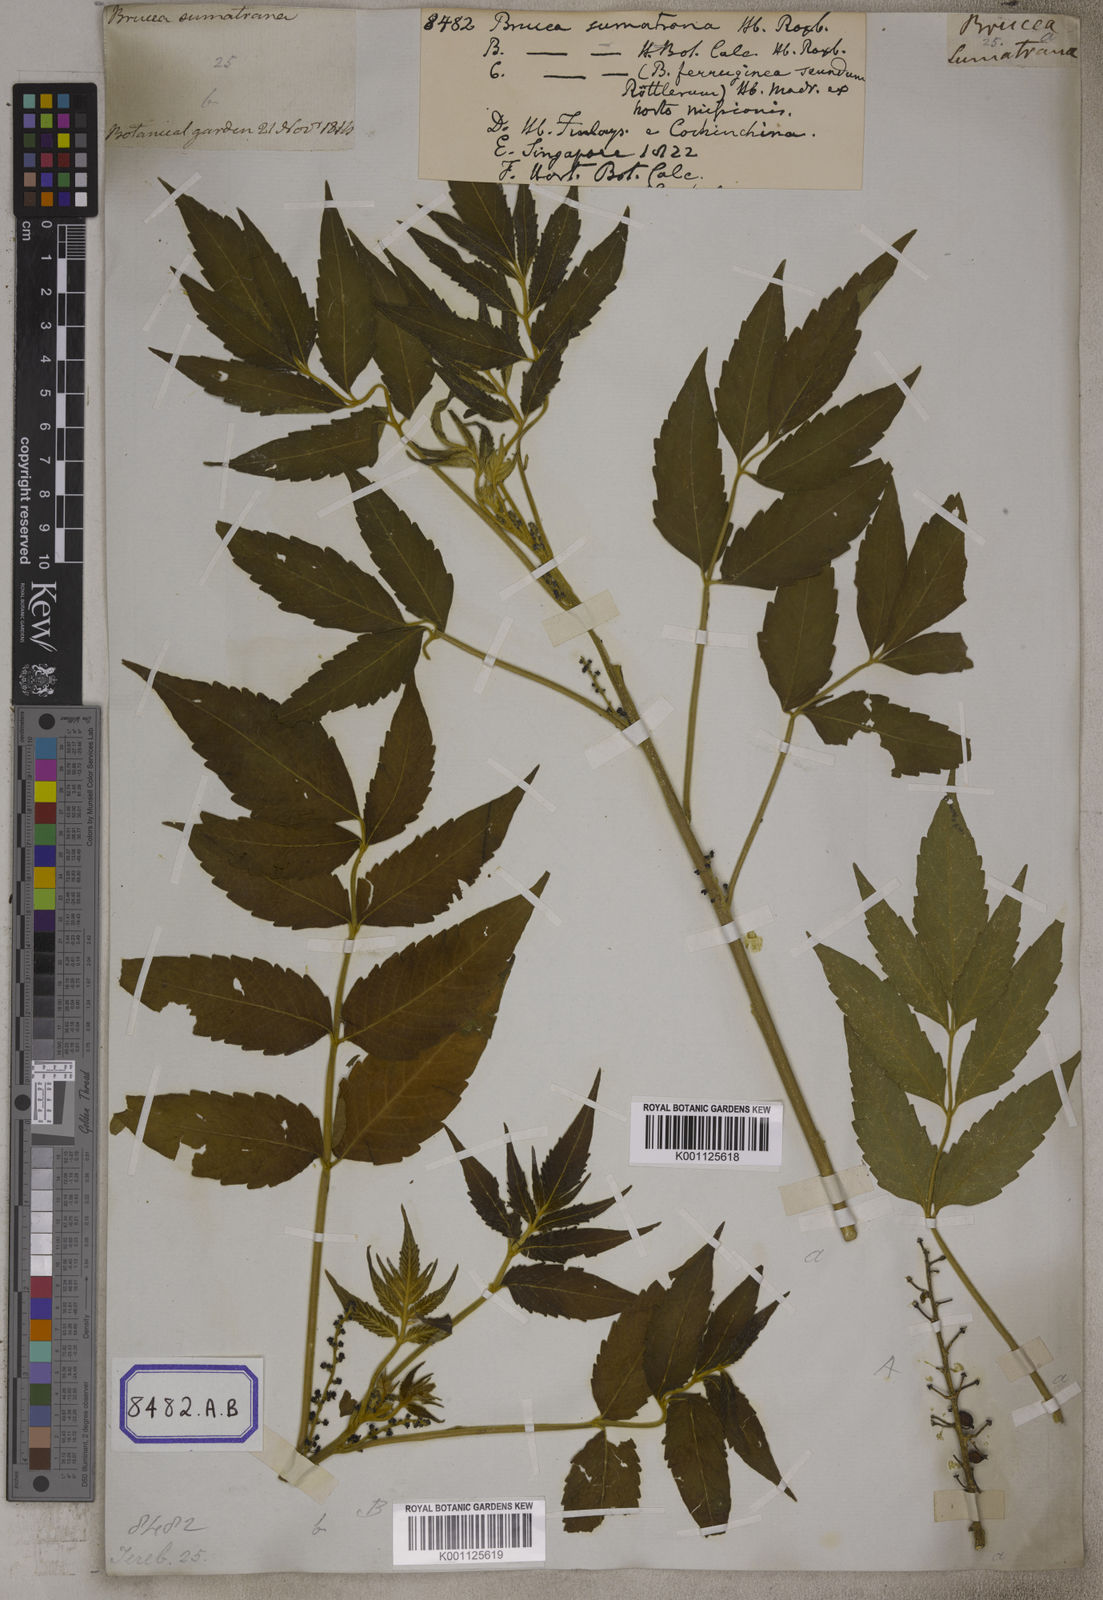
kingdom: Plantae
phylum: Tracheophyta
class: Magnoliopsida
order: Sapindales
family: Simaroubaceae
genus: Brucea
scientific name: Brucea javanica
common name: Macassar kernels
